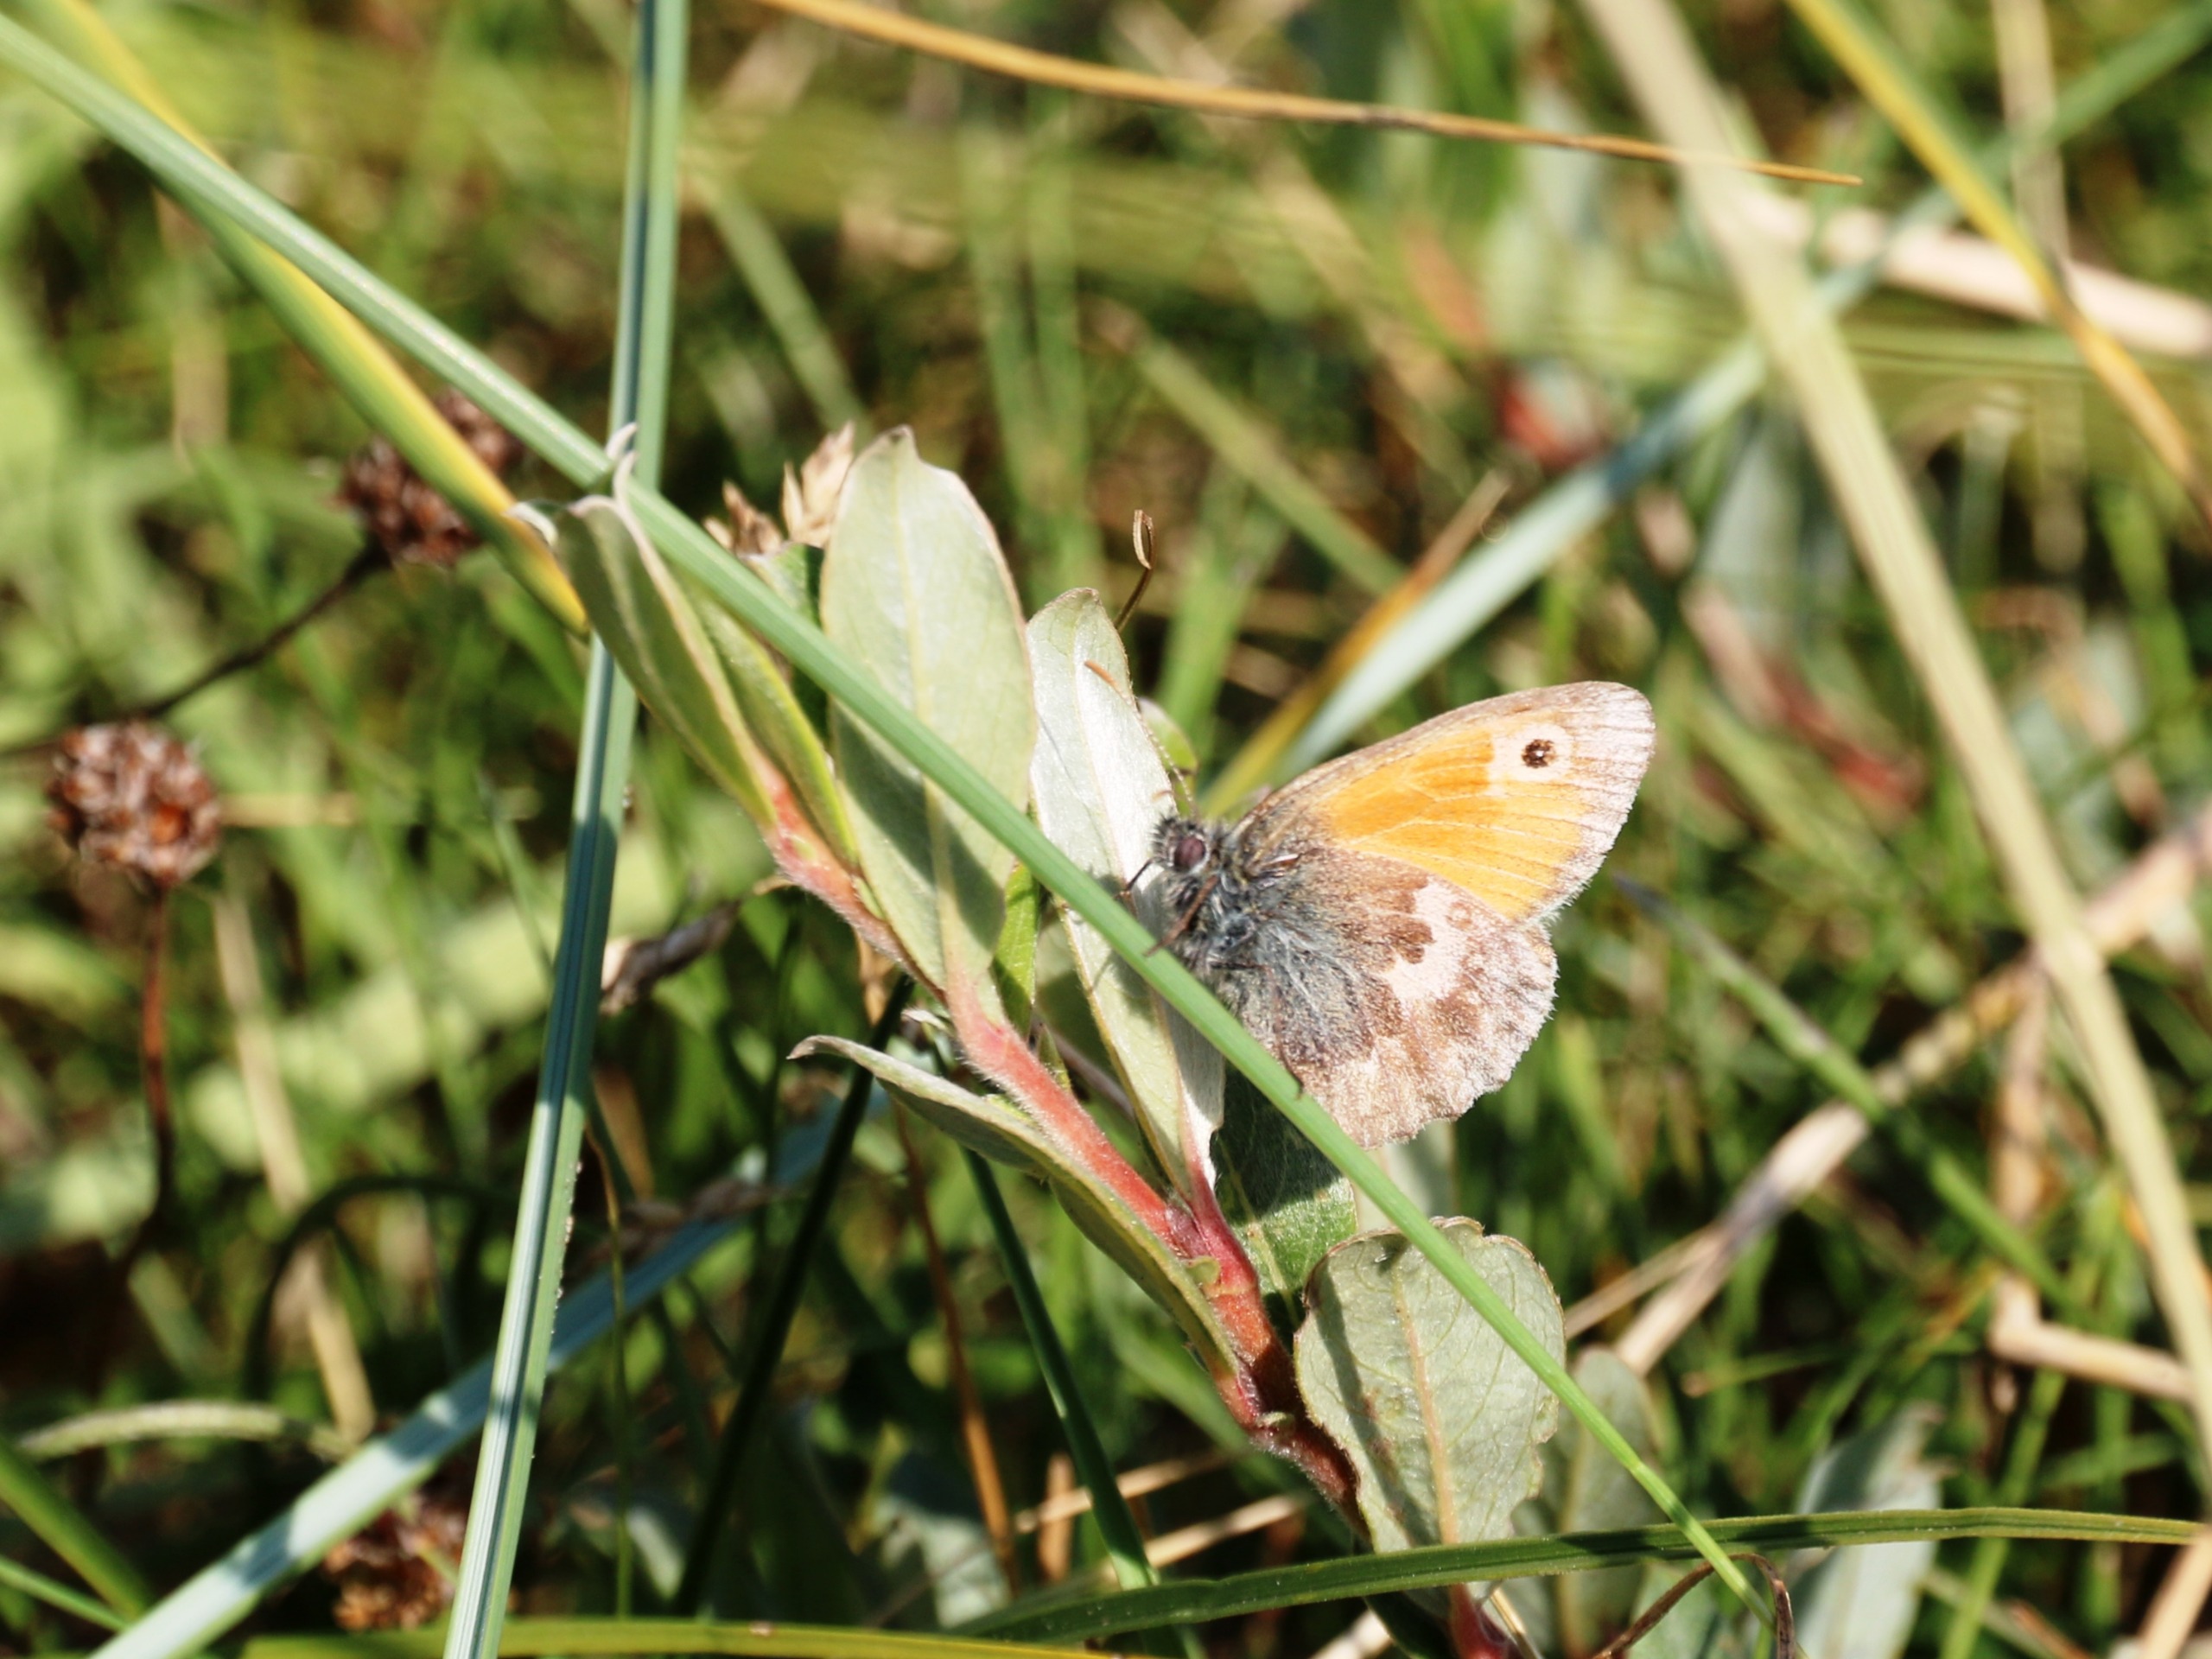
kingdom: Animalia
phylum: Arthropoda
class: Insecta
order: Lepidoptera
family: Nymphalidae
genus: Coenonympha
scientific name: Coenonympha pamphilus
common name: Okkergul randøje
